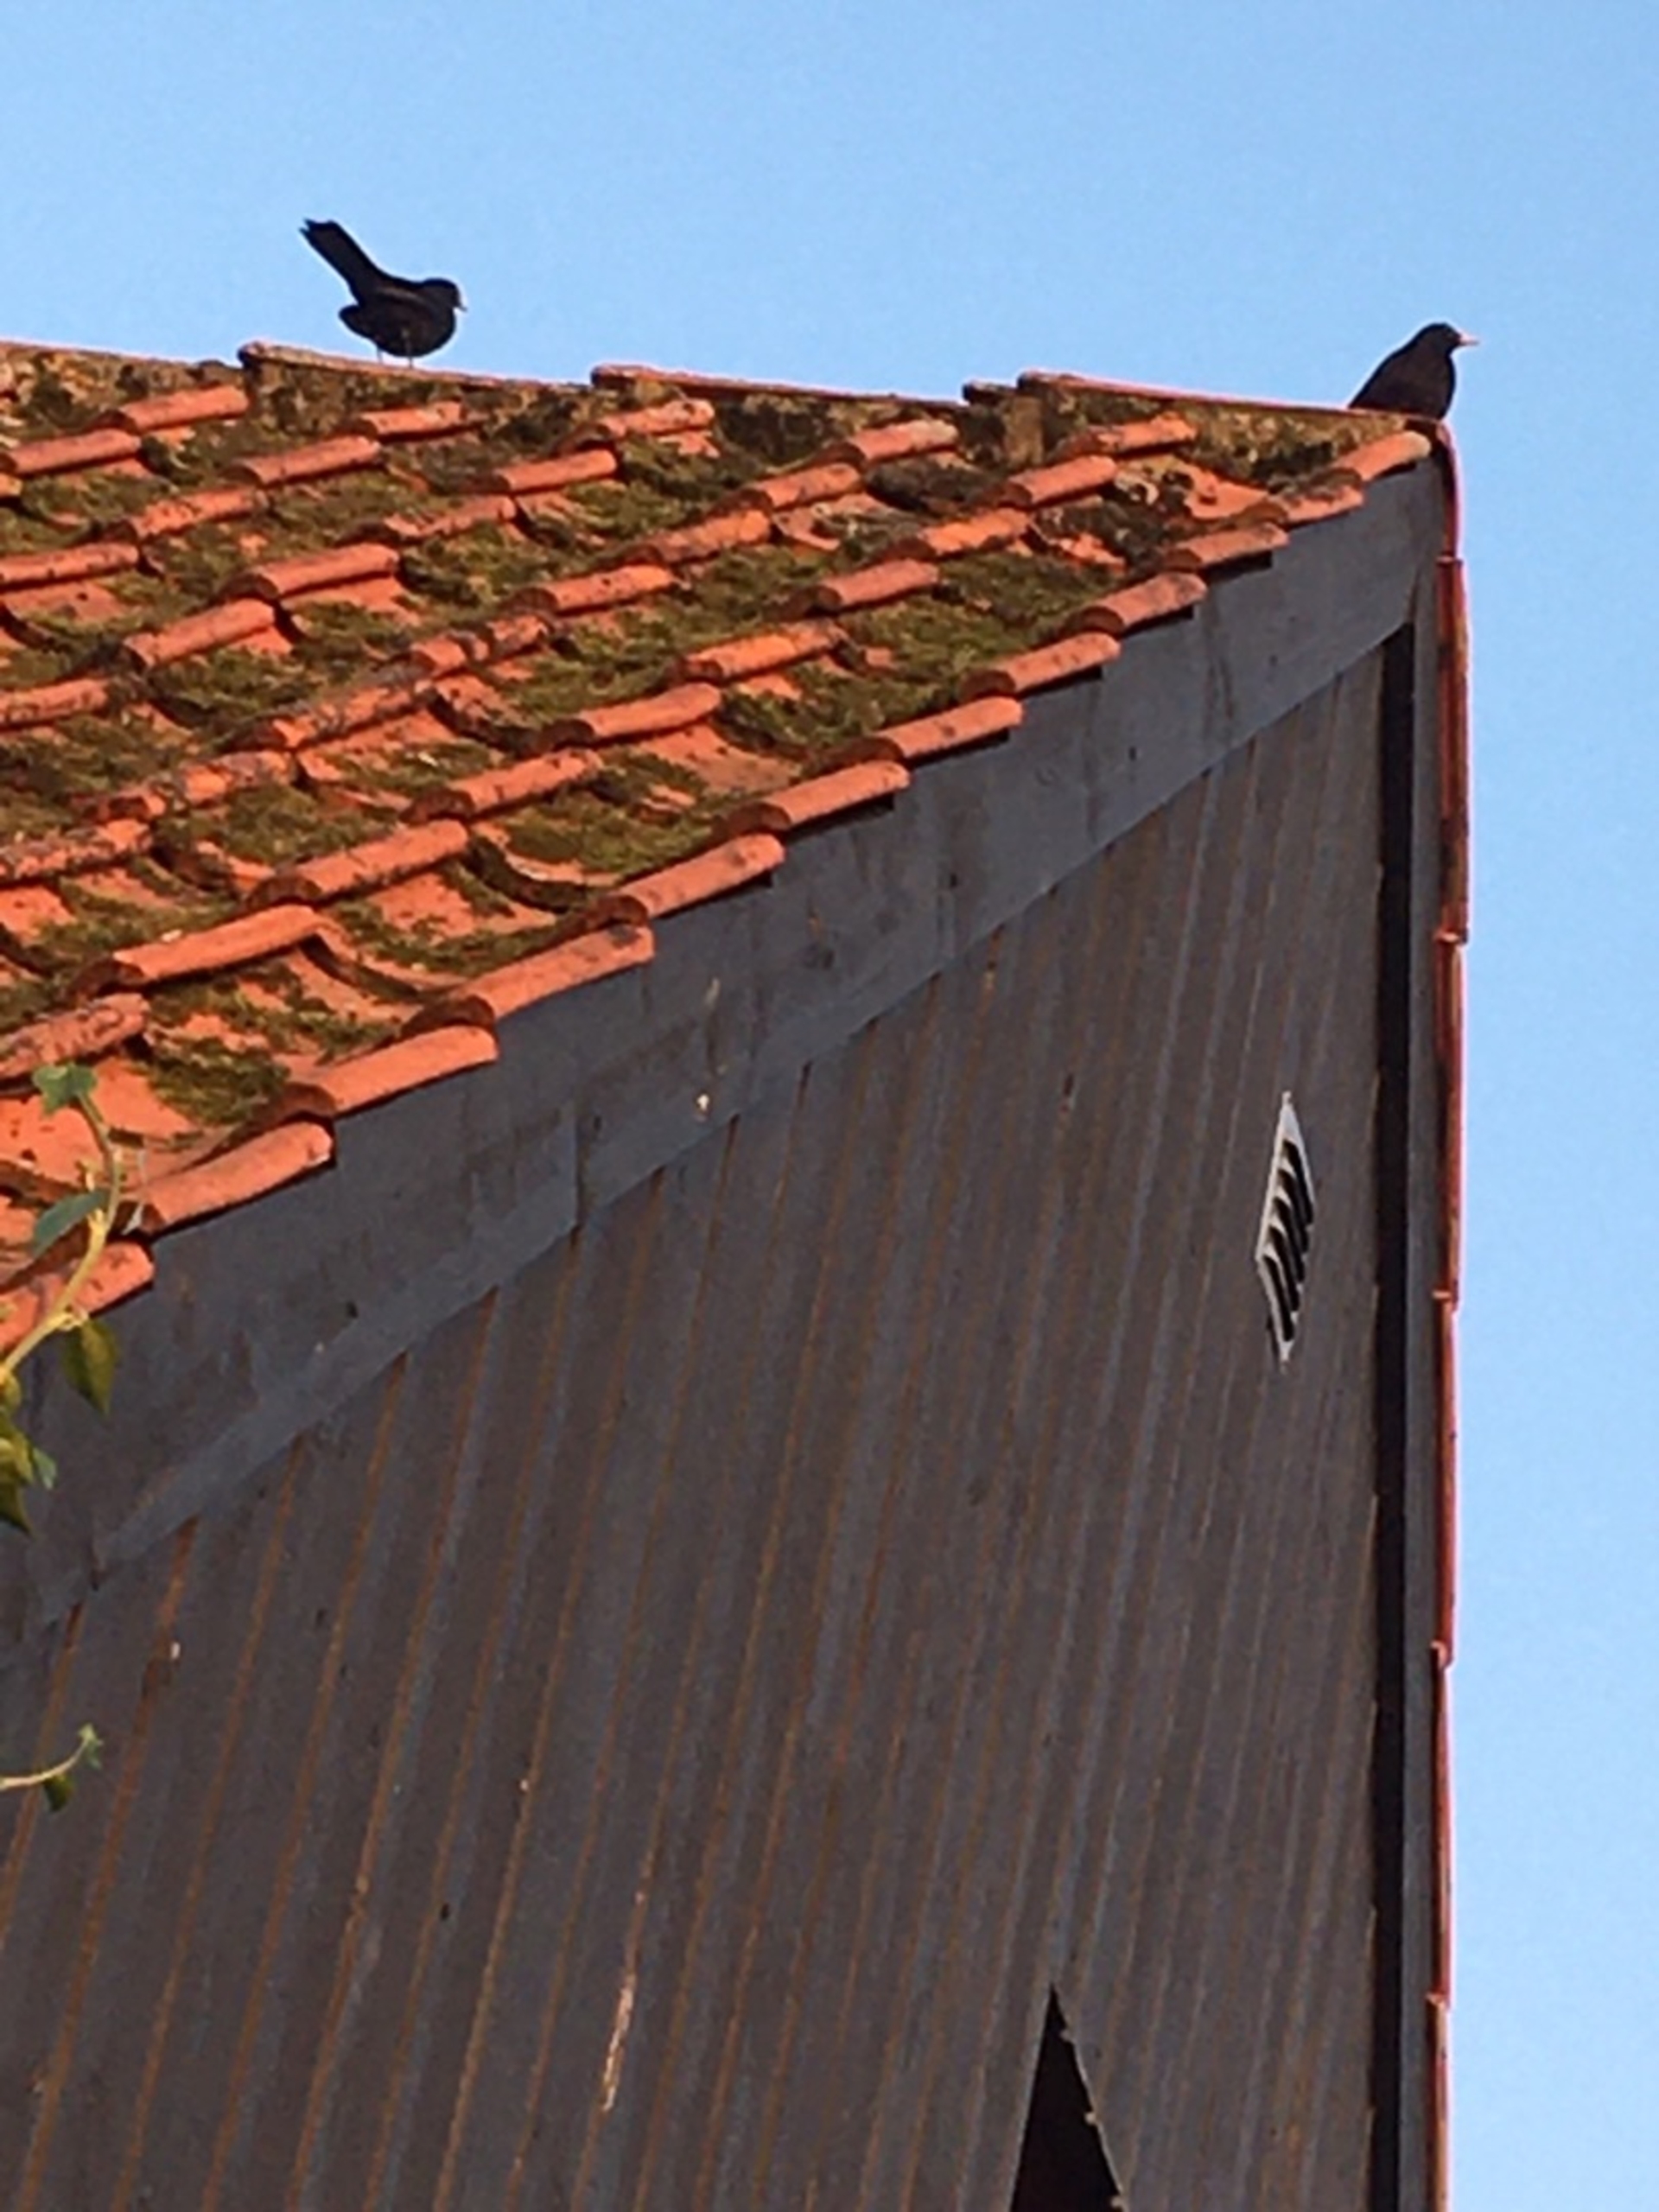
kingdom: Animalia
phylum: Chordata
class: Aves
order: Passeriformes
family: Turdidae
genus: Turdus
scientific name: Turdus merula
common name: Solsort
